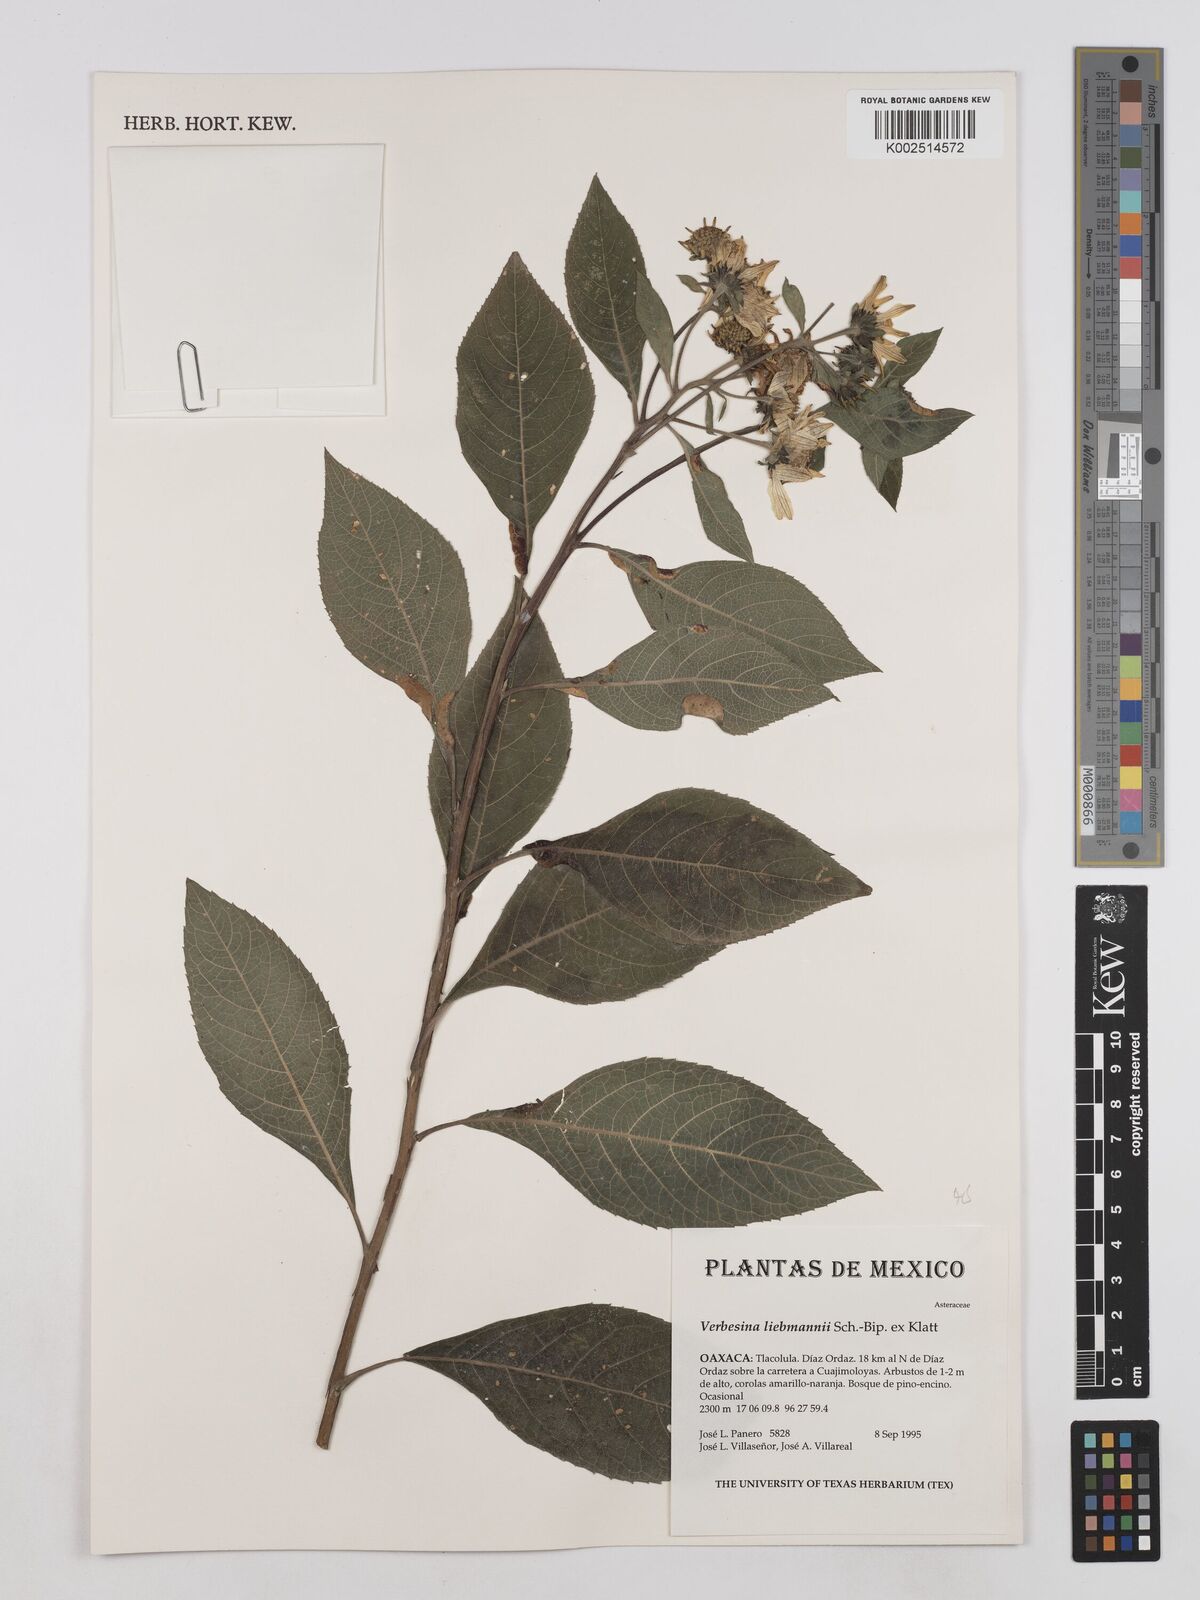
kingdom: Plantae
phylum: Tracheophyta
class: Magnoliopsida
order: Asterales
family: Asteraceae
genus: Verbesina
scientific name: Verbesina liebmannii
